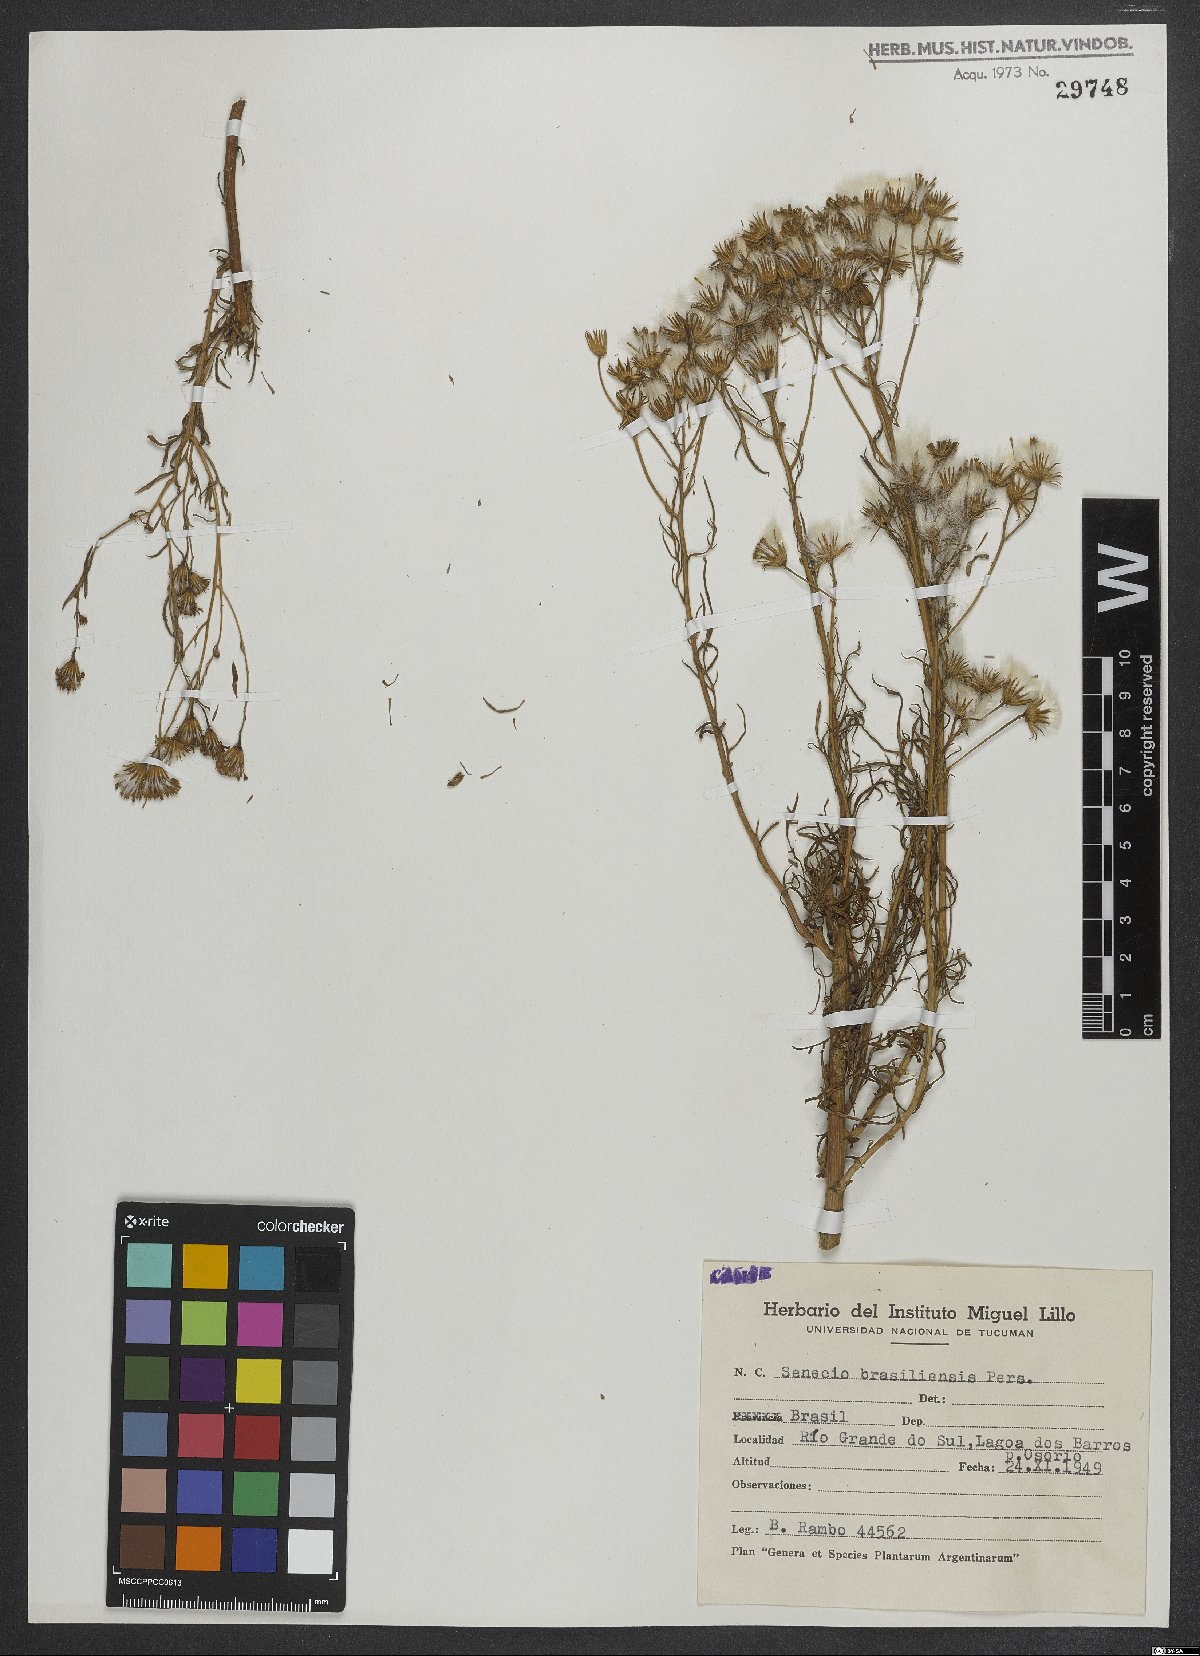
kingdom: Plantae
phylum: Tracheophyta
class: Magnoliopsida
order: Asterales
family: Asteraceae
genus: Senecio
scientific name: Senecio brasiliensis
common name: Hemp-leaf ragwort
